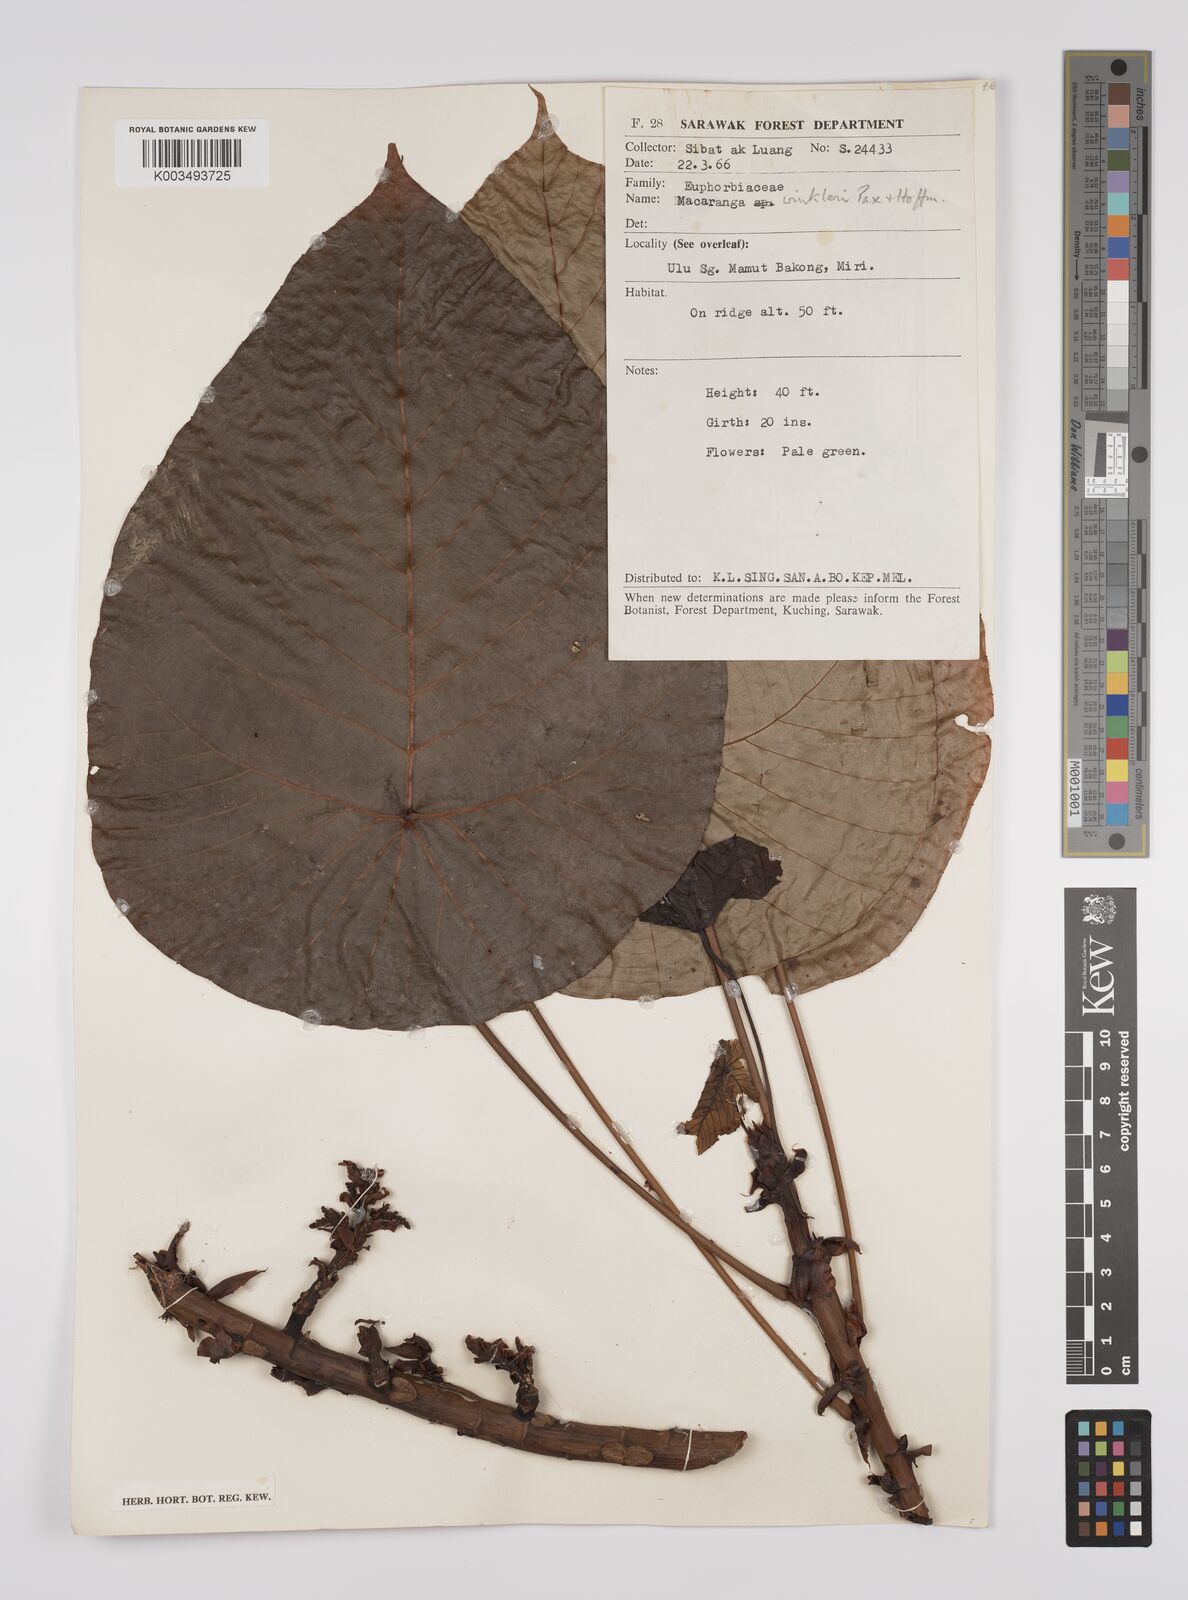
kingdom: Plantae
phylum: Tracheophyta
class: Magnoliopsida
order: Malpighiales
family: Euphorbiaceae
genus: Macaranga
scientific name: Macaranga winkleri
